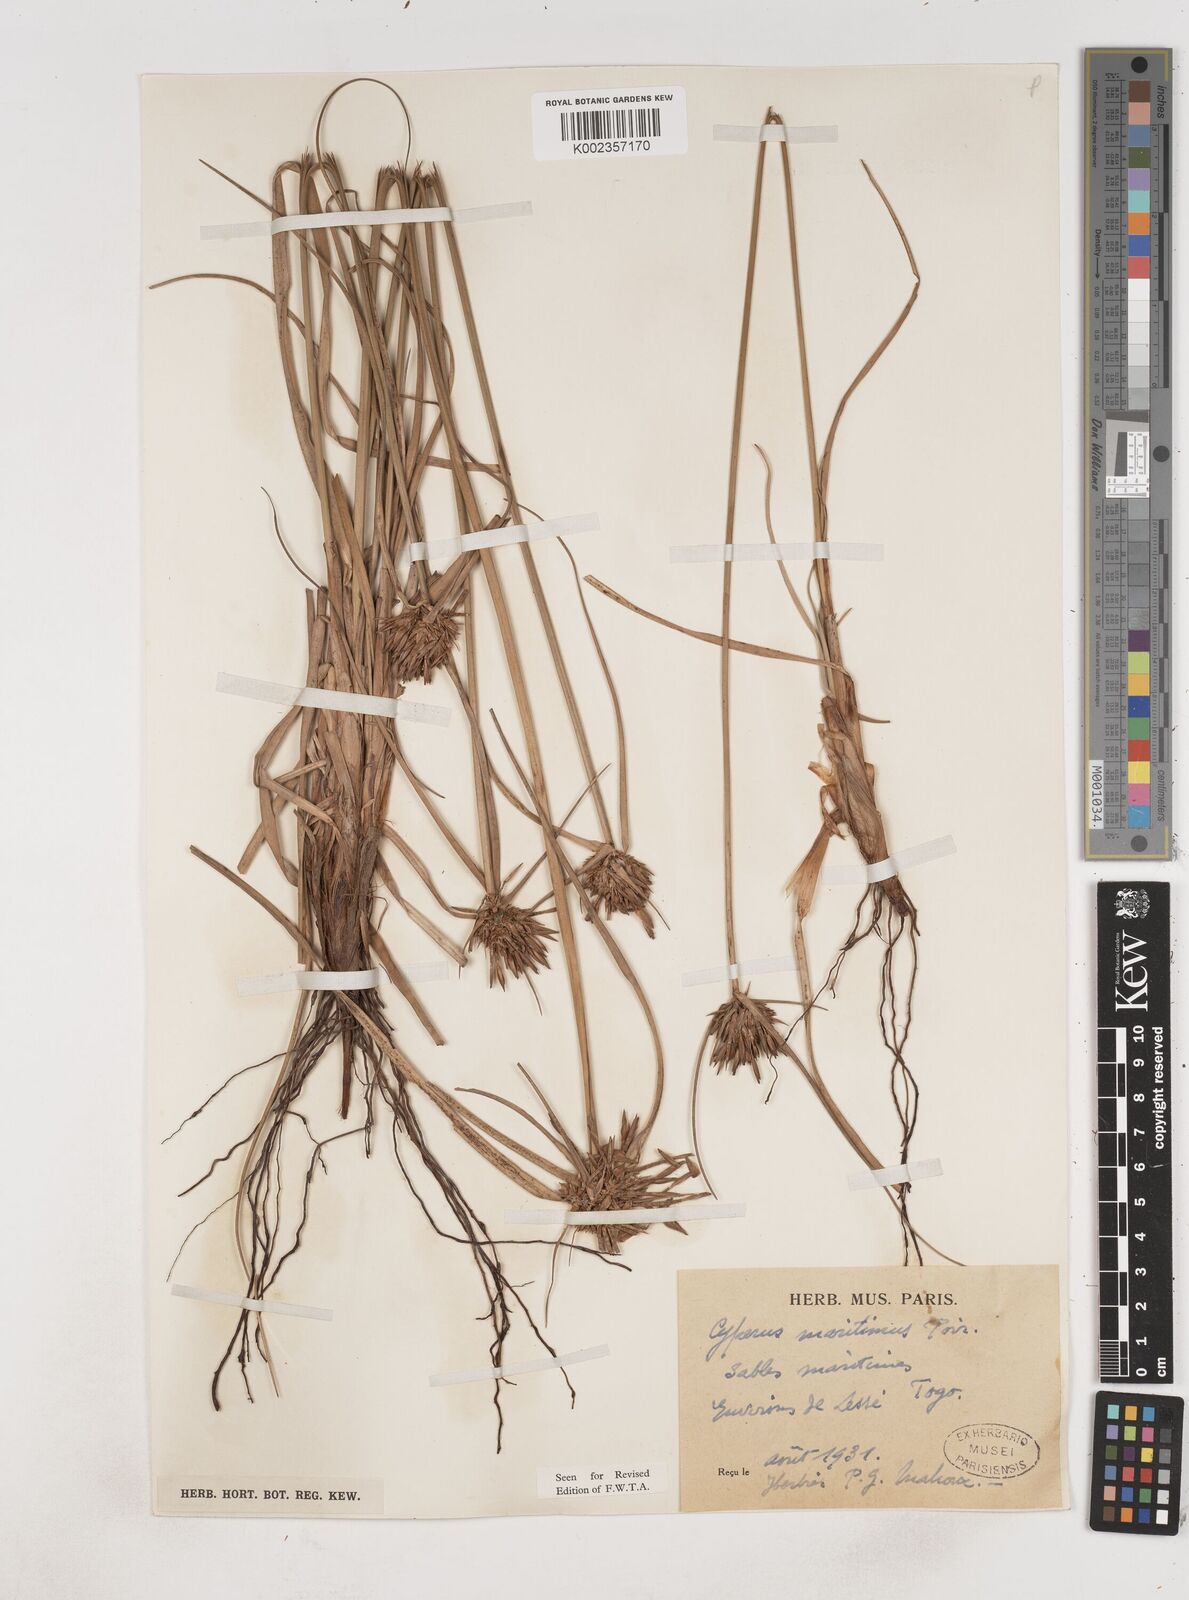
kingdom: Plantae
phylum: Tracheophyta
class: Liliopsida
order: Poales
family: Cyperaceae
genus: Cyperus
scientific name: Cyperus crassipes
